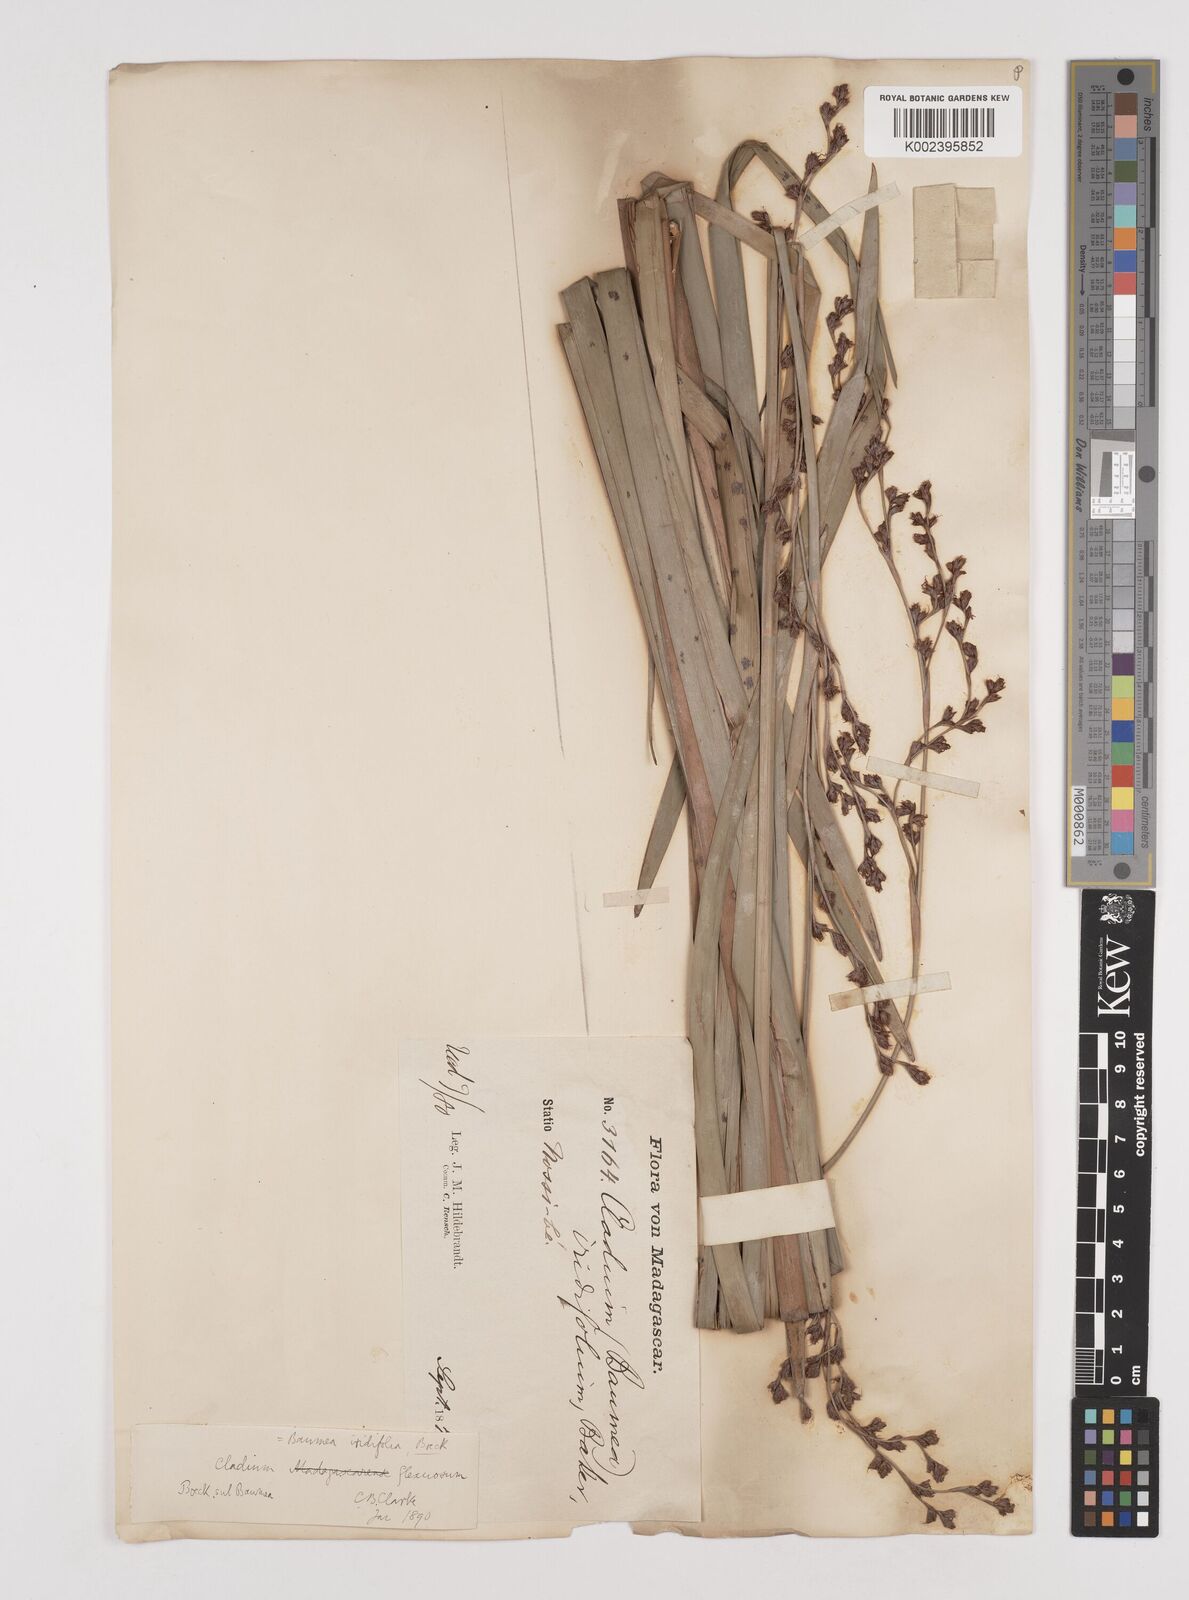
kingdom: Plantae
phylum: Tracheophyta
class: Liliopsida
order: Poales
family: Cyperaceae
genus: Machaerina
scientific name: Machaerina flexuosa
